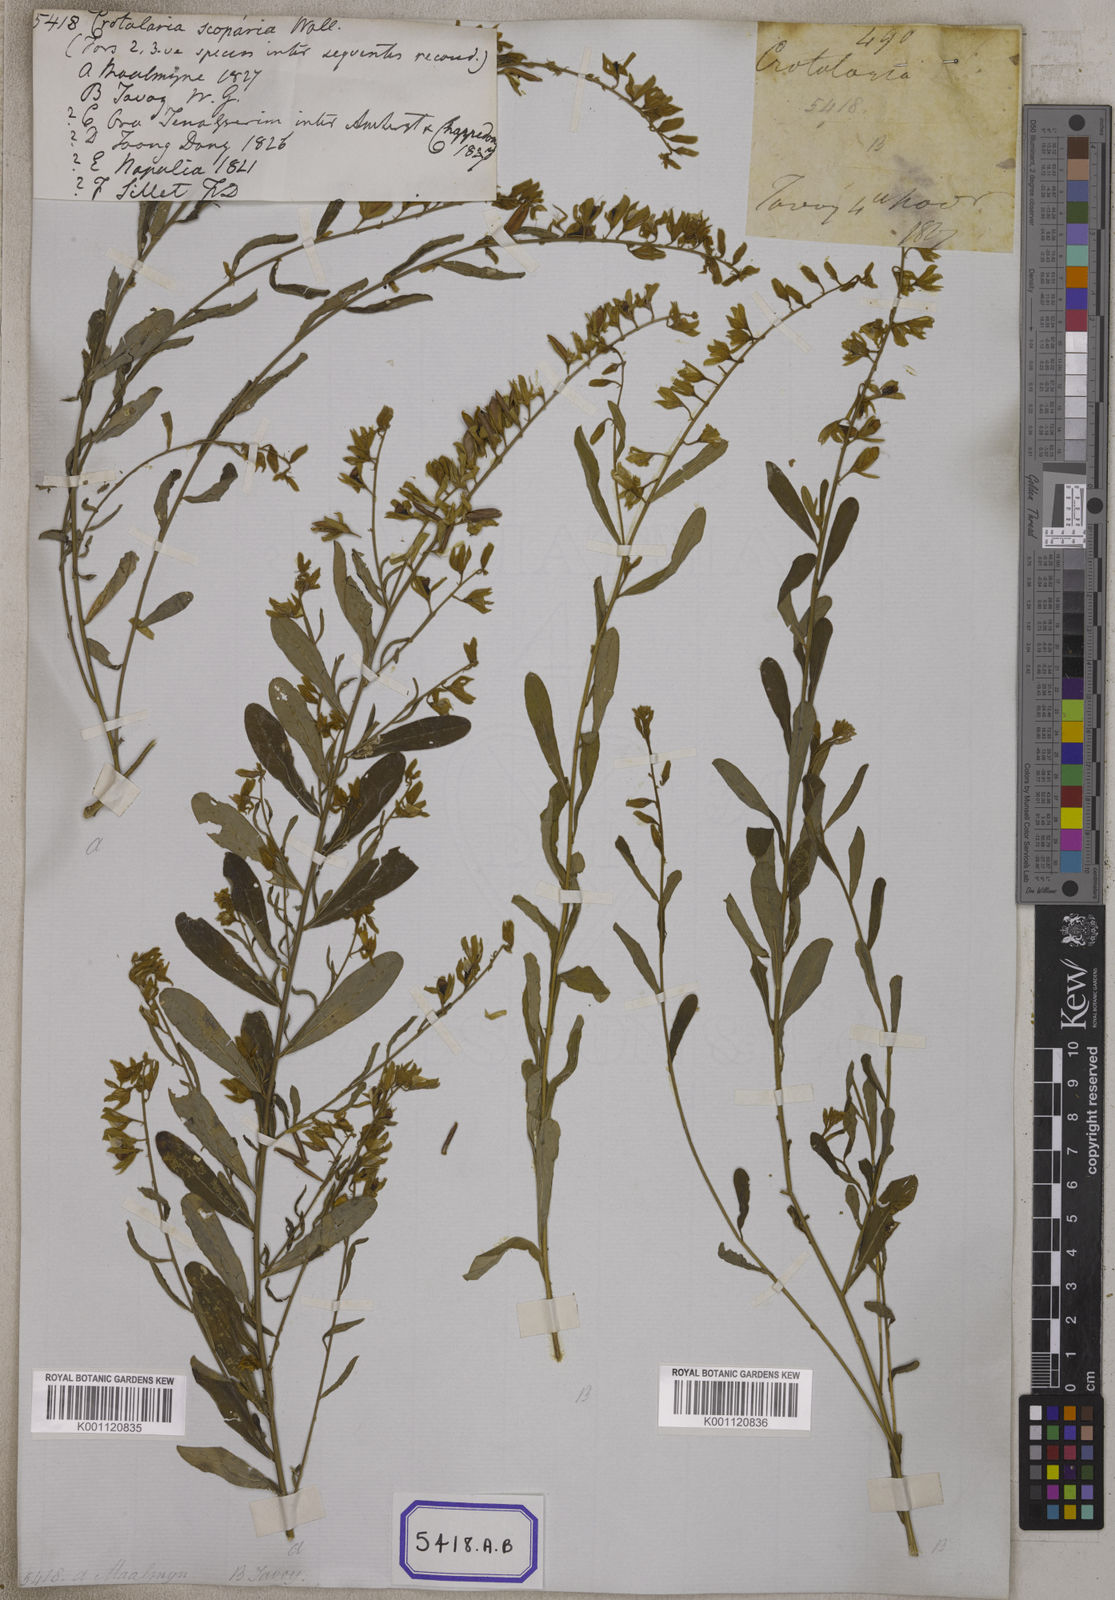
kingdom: Plantae
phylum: Tracheophyta
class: Magnoliopsida
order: Fabales
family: Fabaceae
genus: Crotalaria
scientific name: Crotalaria albida
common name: Taiwan crotalaria
